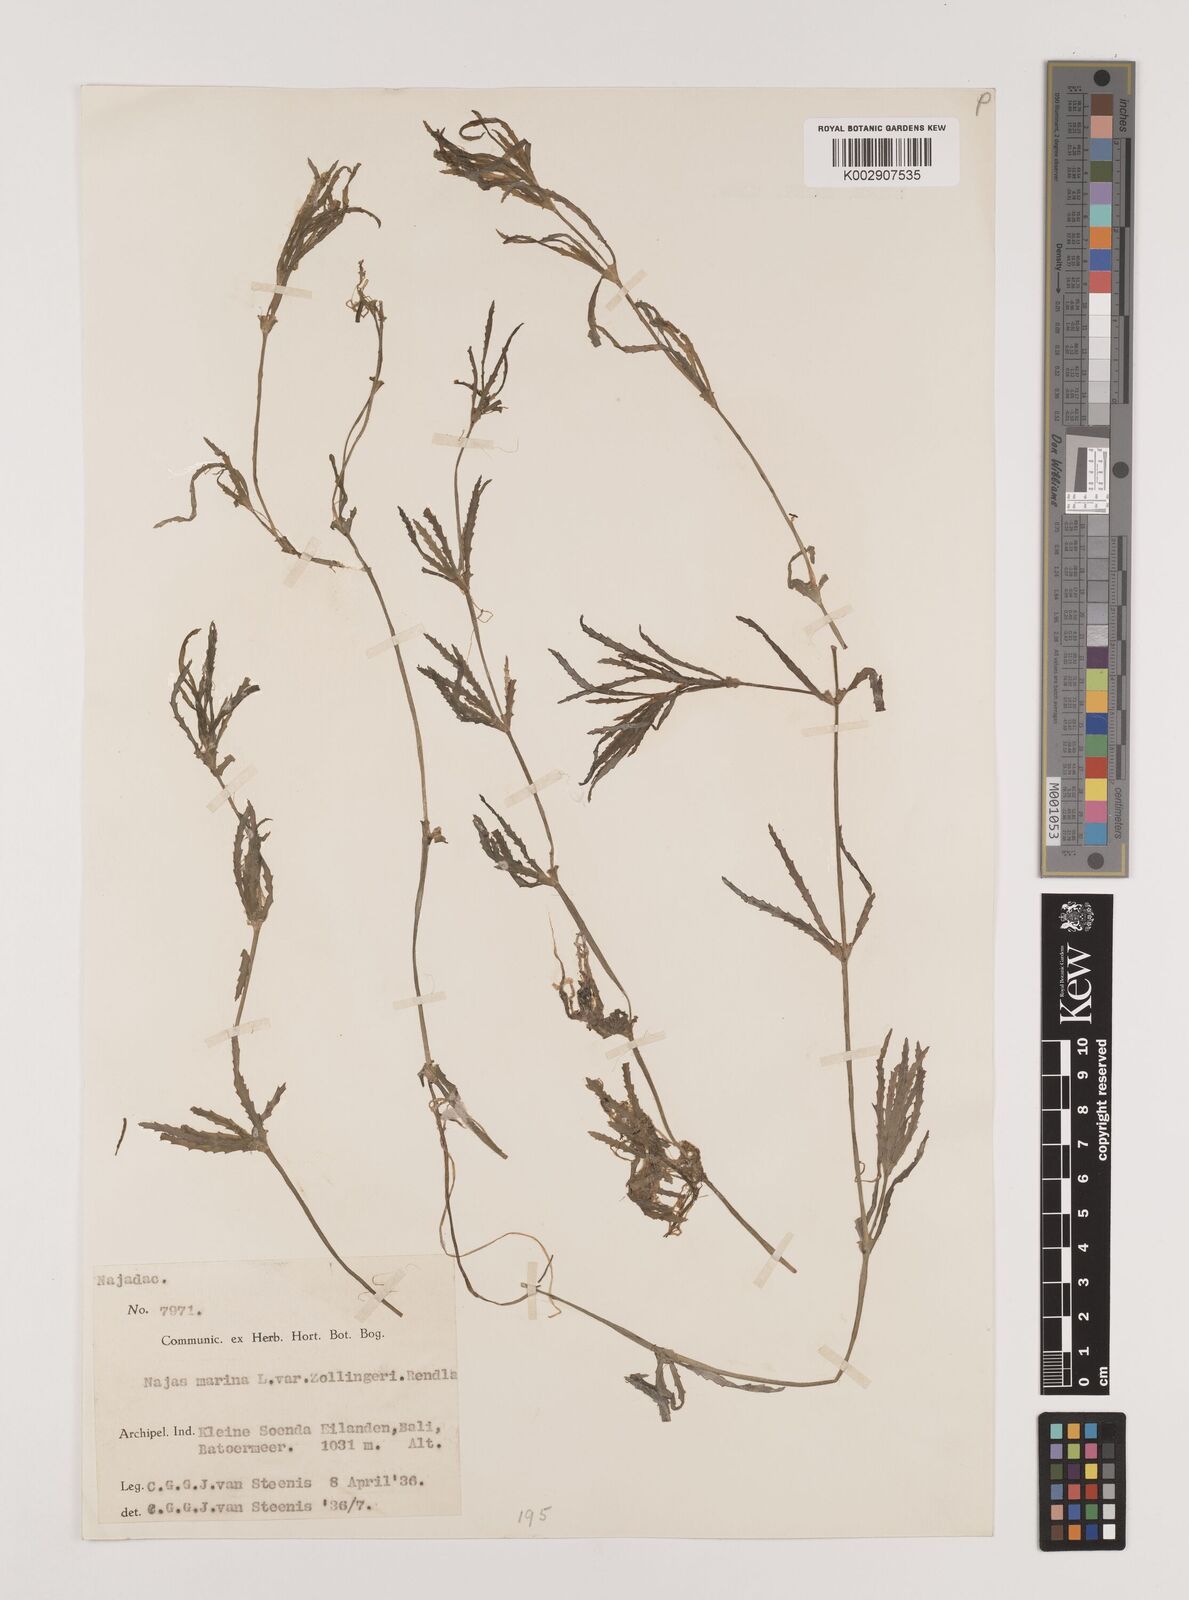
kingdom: Plantae
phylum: Tracheophyta
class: Liliopsida
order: Alismatales
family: Hydrocharitaceae
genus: Najas
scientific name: Najas marina
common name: Holly-leaved naiad
